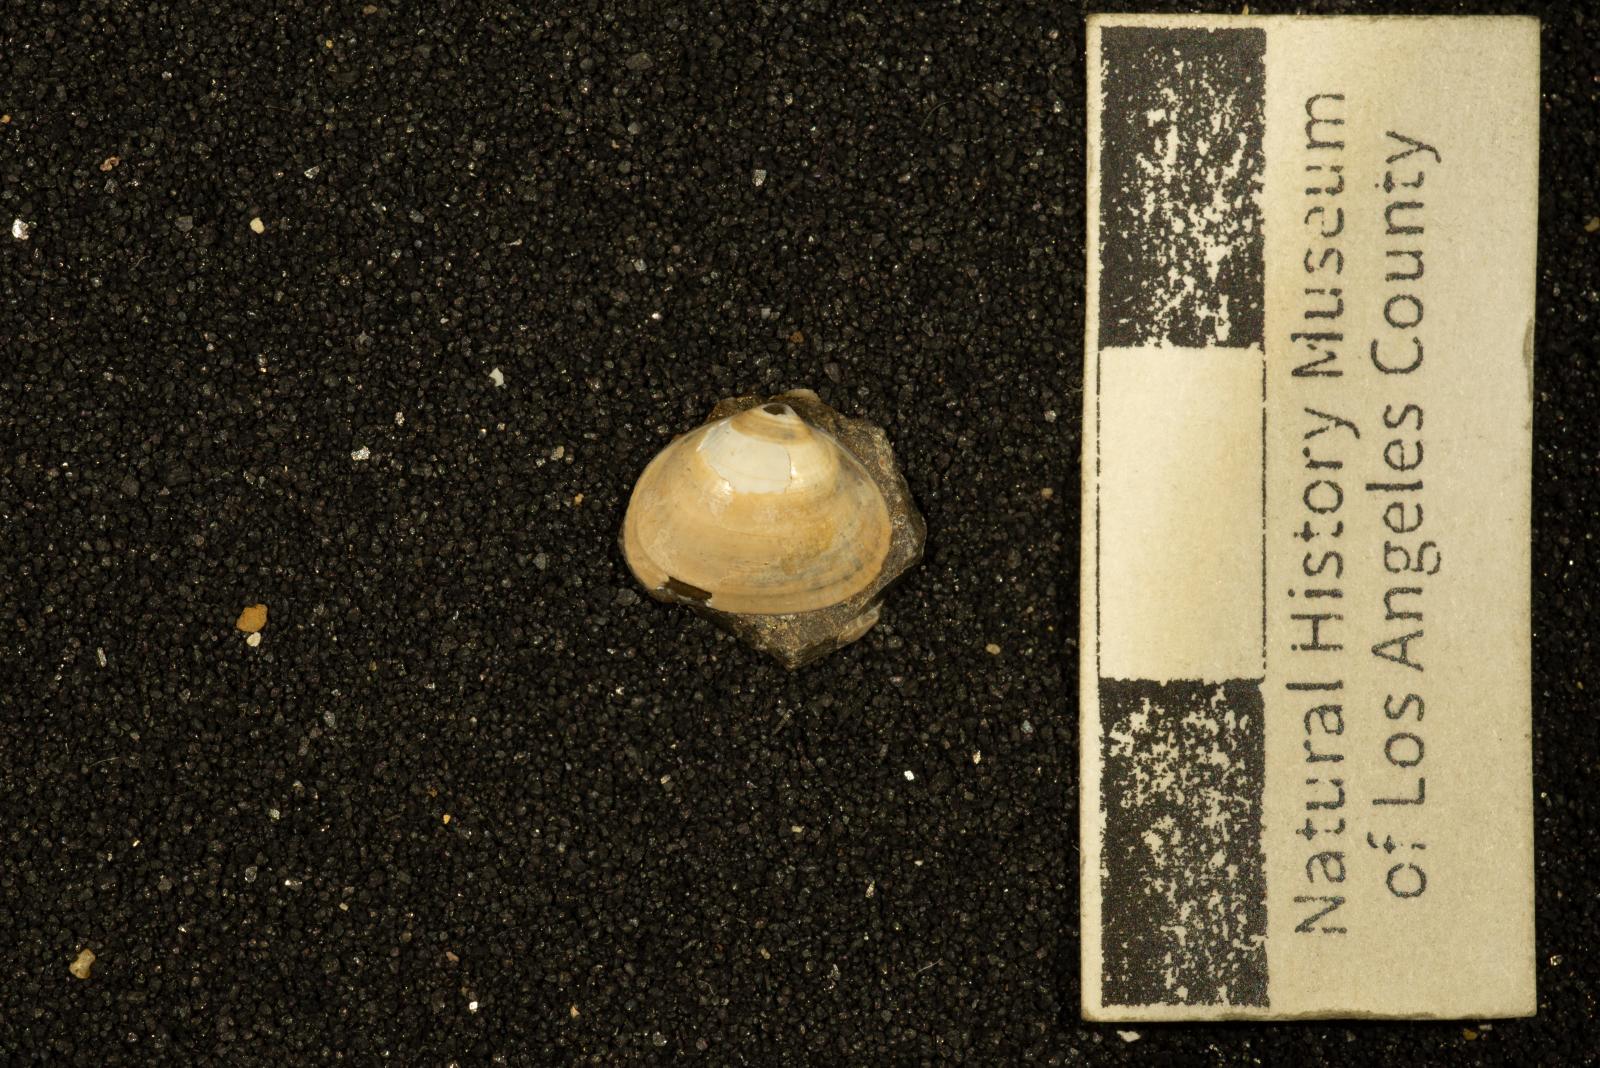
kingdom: Animalia
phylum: Mollusca
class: Bivalvia
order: Venerida
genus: Rhectomyax
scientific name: Rhectomyax
